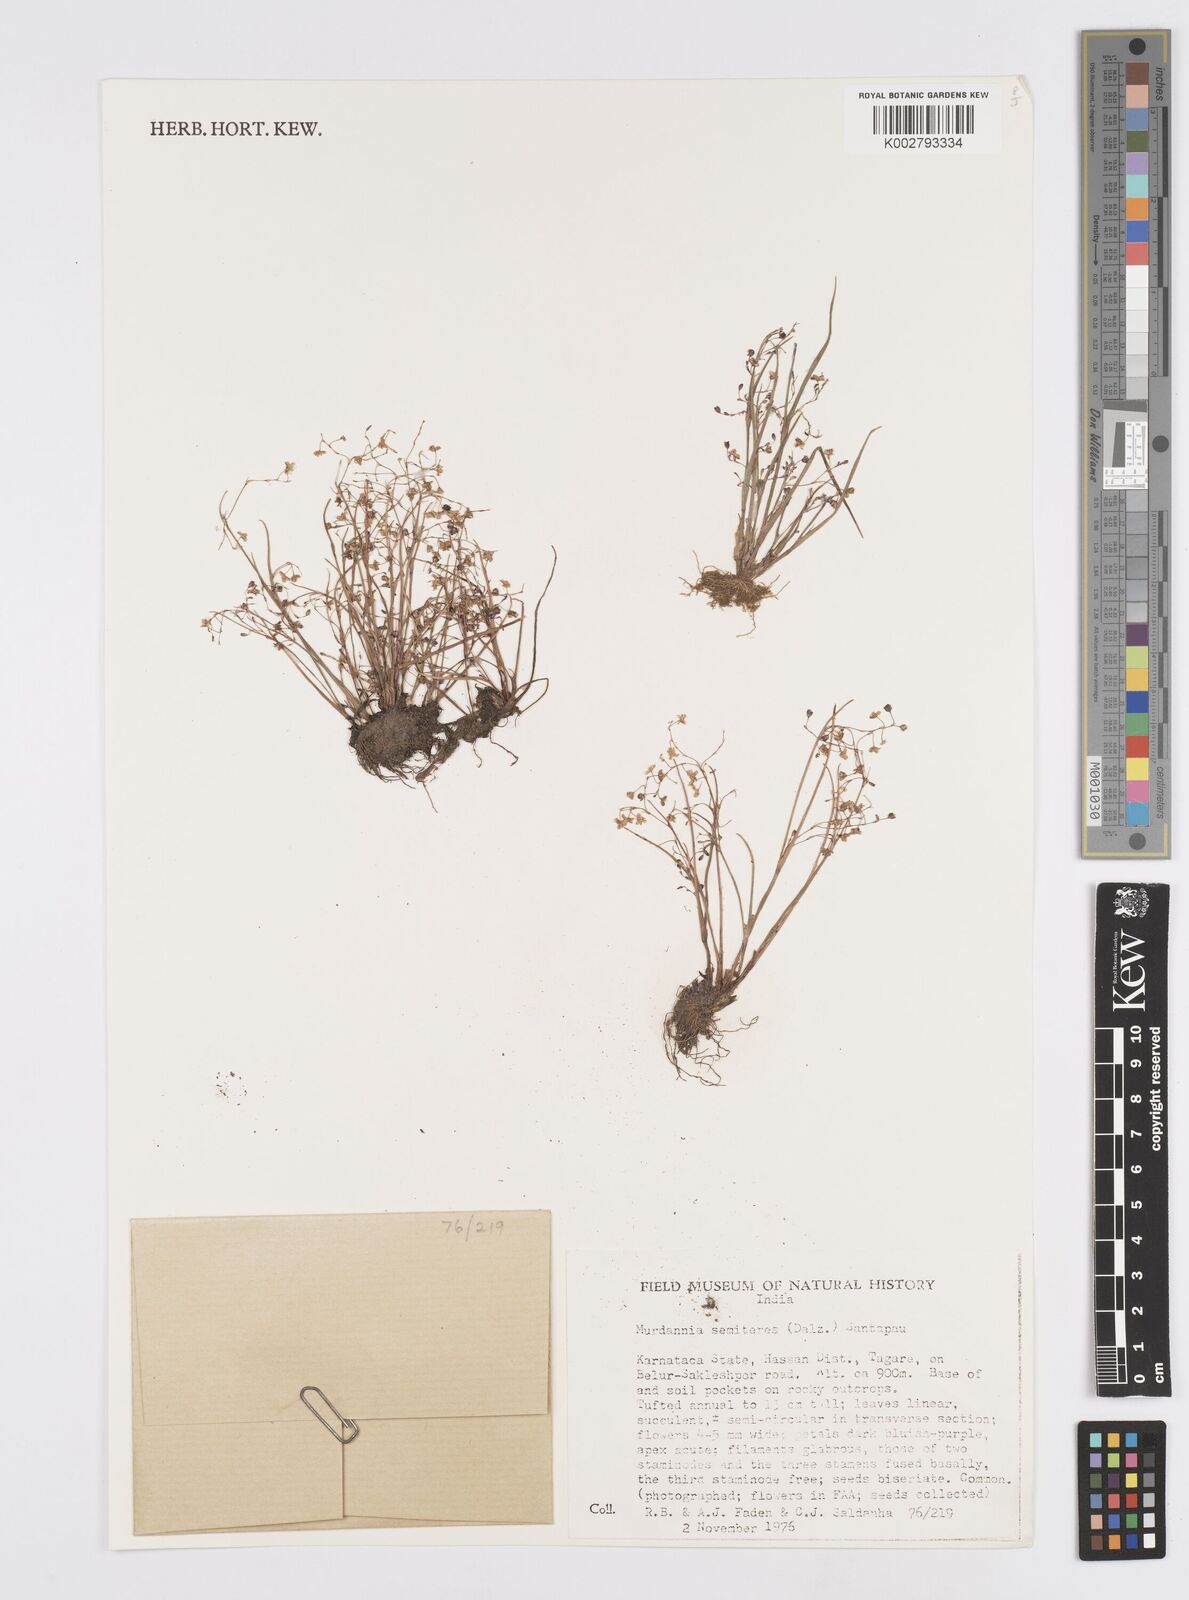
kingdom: Plantae
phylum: Tracheophyta
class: Liliopsida
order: Commelinales
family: Commelinaceae
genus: Murdannia
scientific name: Murdannia semiteres
